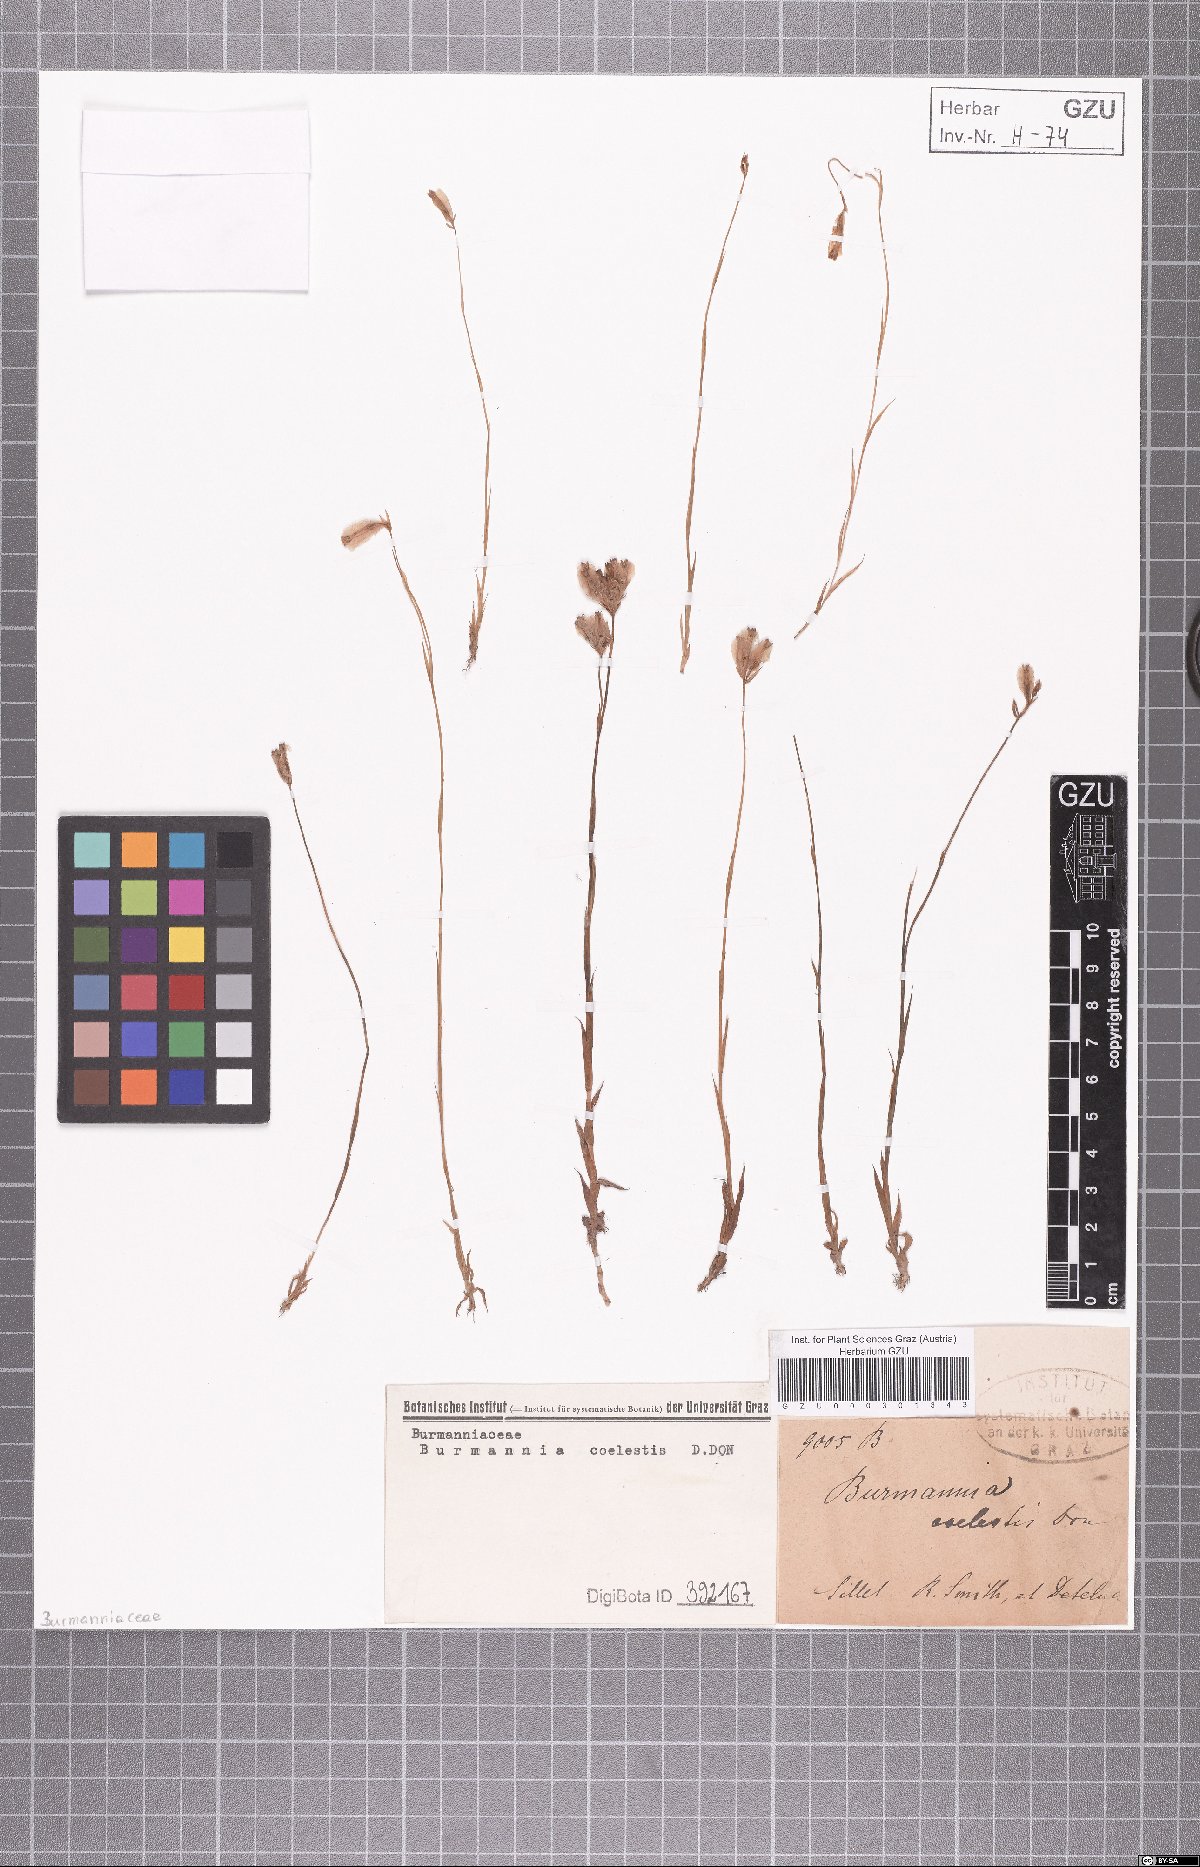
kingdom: Plantae
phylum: Tracheophyta
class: Liliopsida
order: Dioscoreales
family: Burmanniaceae
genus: Burmannia
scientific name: Burmannia coelestis
